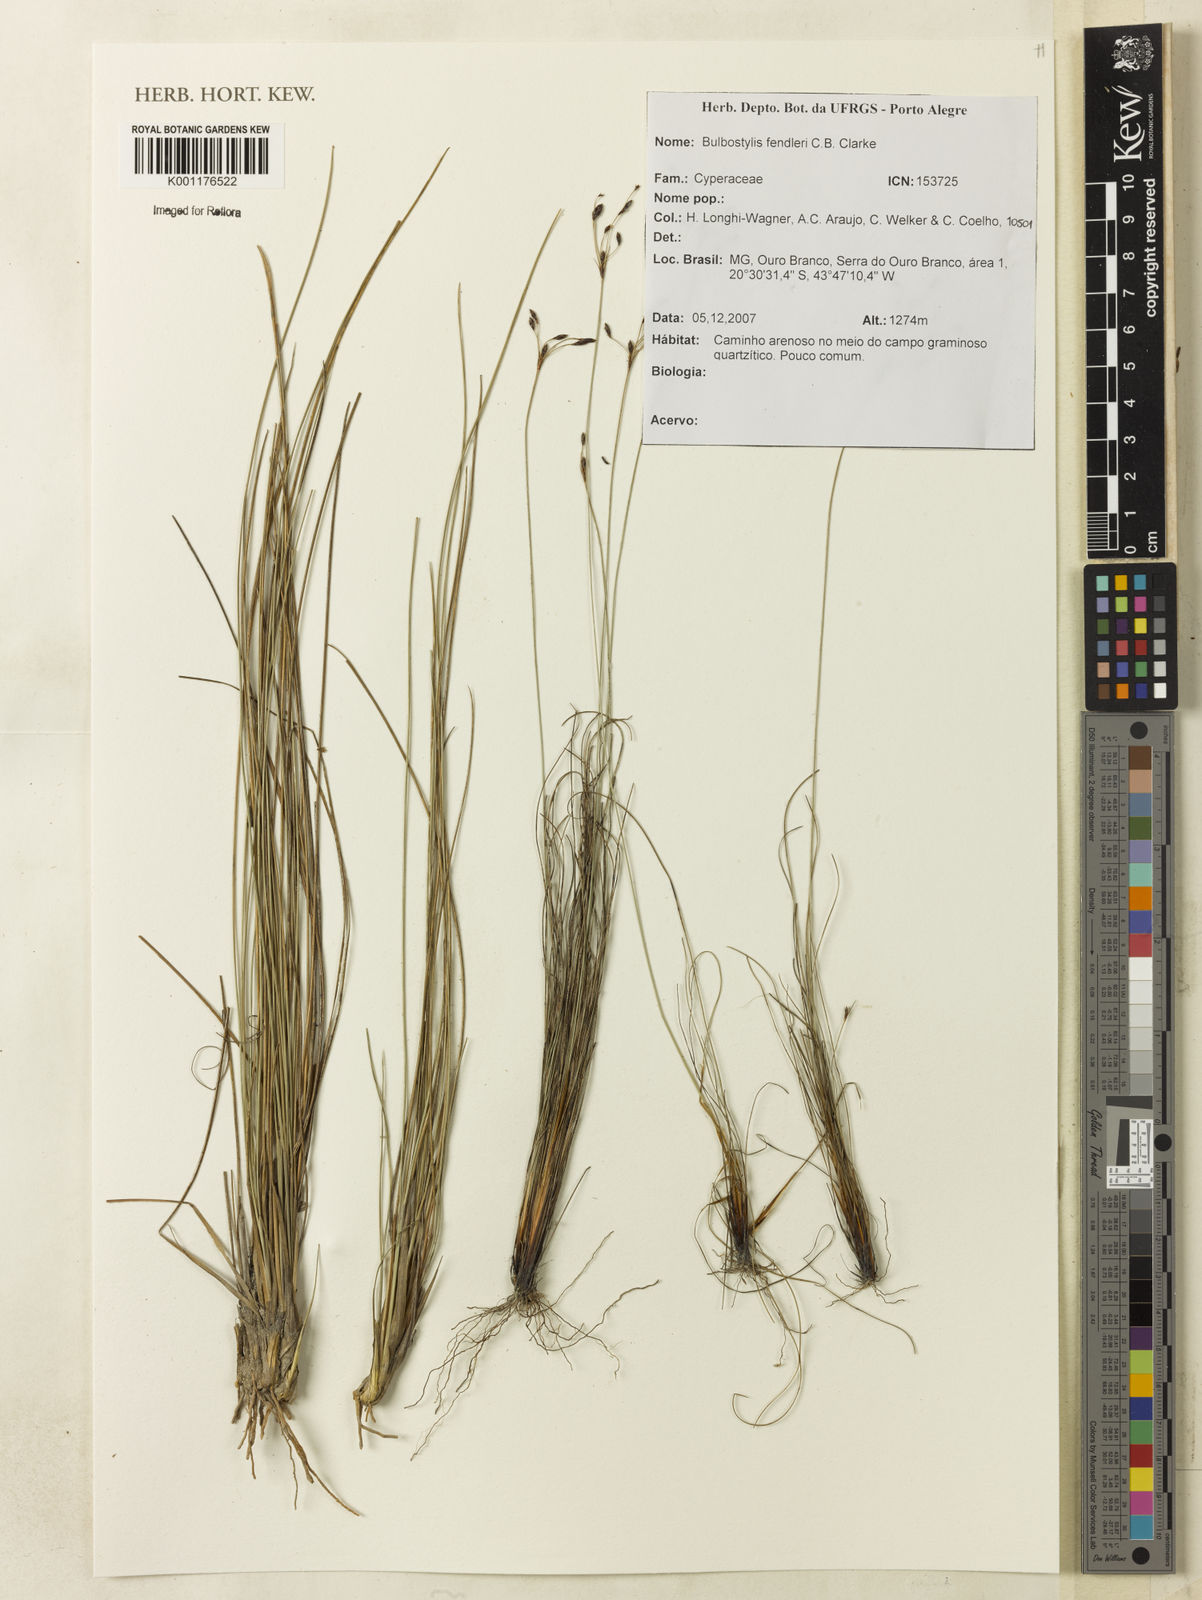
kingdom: Plantae
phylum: Tracheophyta
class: Liliopsida
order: Poales
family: Cyperaceae
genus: Bulbostylis
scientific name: Bulbostylis juncoides
